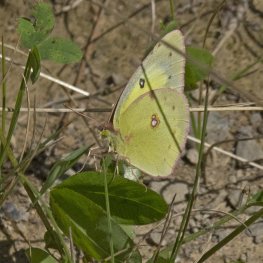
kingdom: Animalia
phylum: Arthropoda
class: Insecta
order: Lepidoptera
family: Pieridae
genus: Colias
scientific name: Colias philodice
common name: Clouded Sulphur
